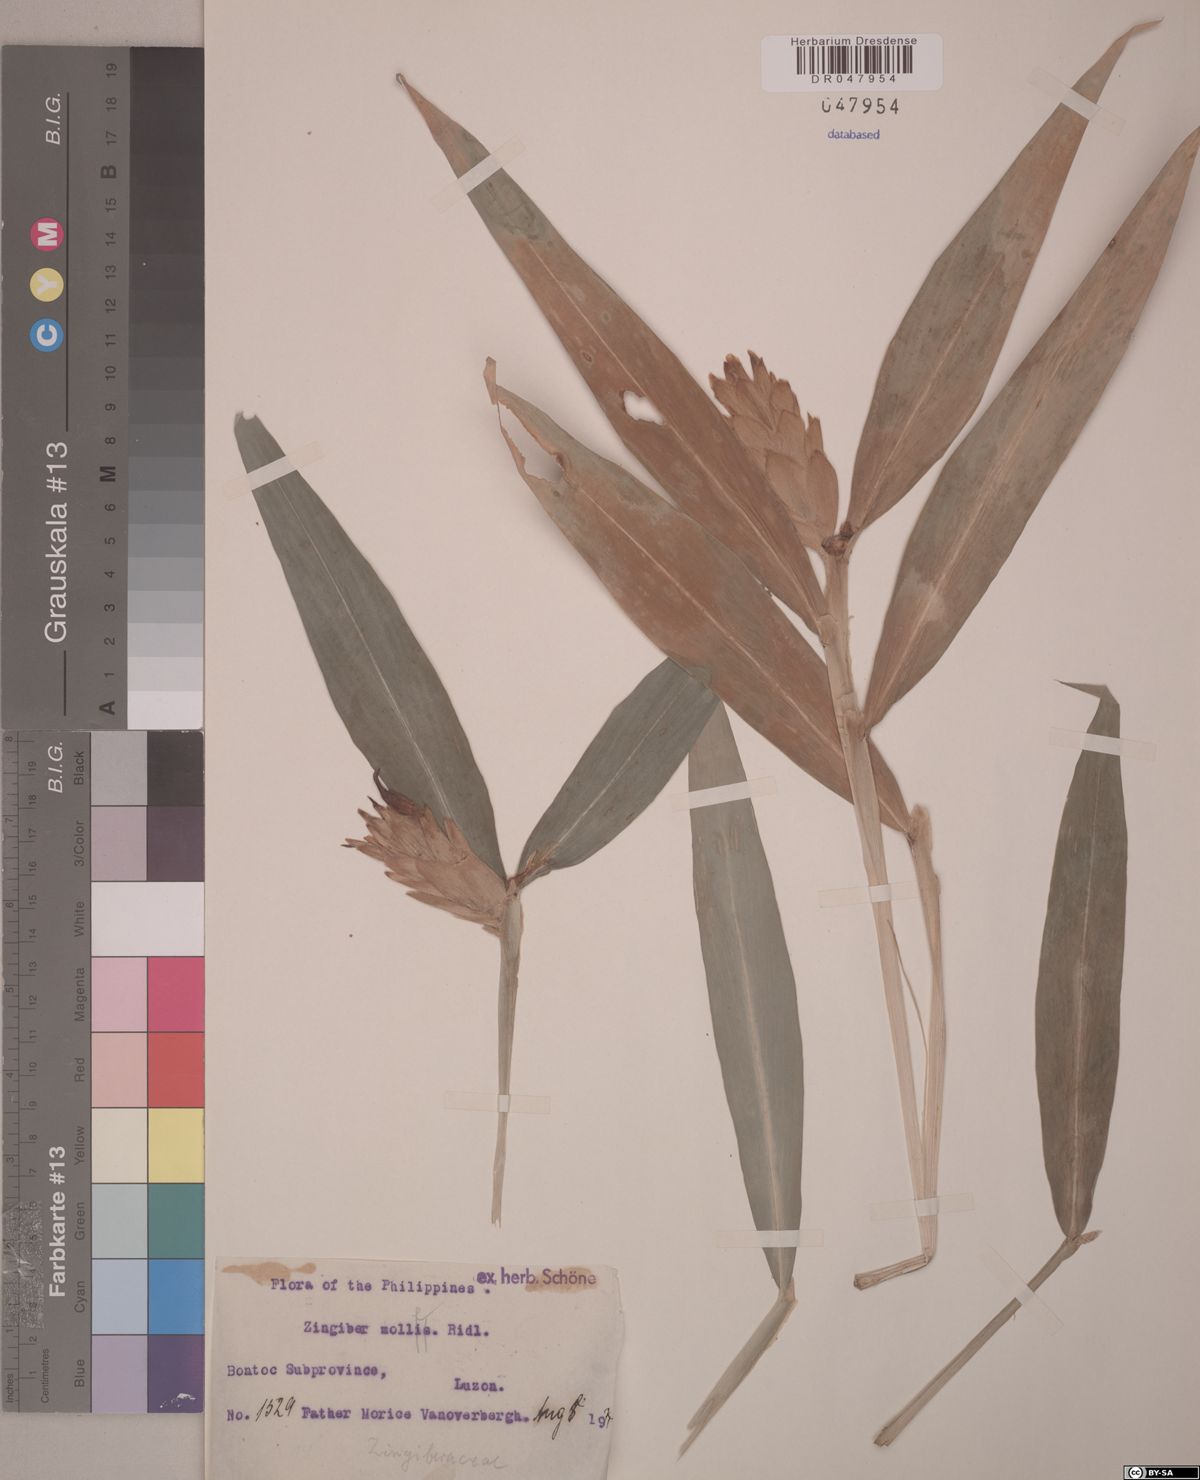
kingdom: Plantae
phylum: Tracheophyta
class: Liliopsida
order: Zingiberales
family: Zingiberaceae
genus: Zingiber
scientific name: Zingiber molle
